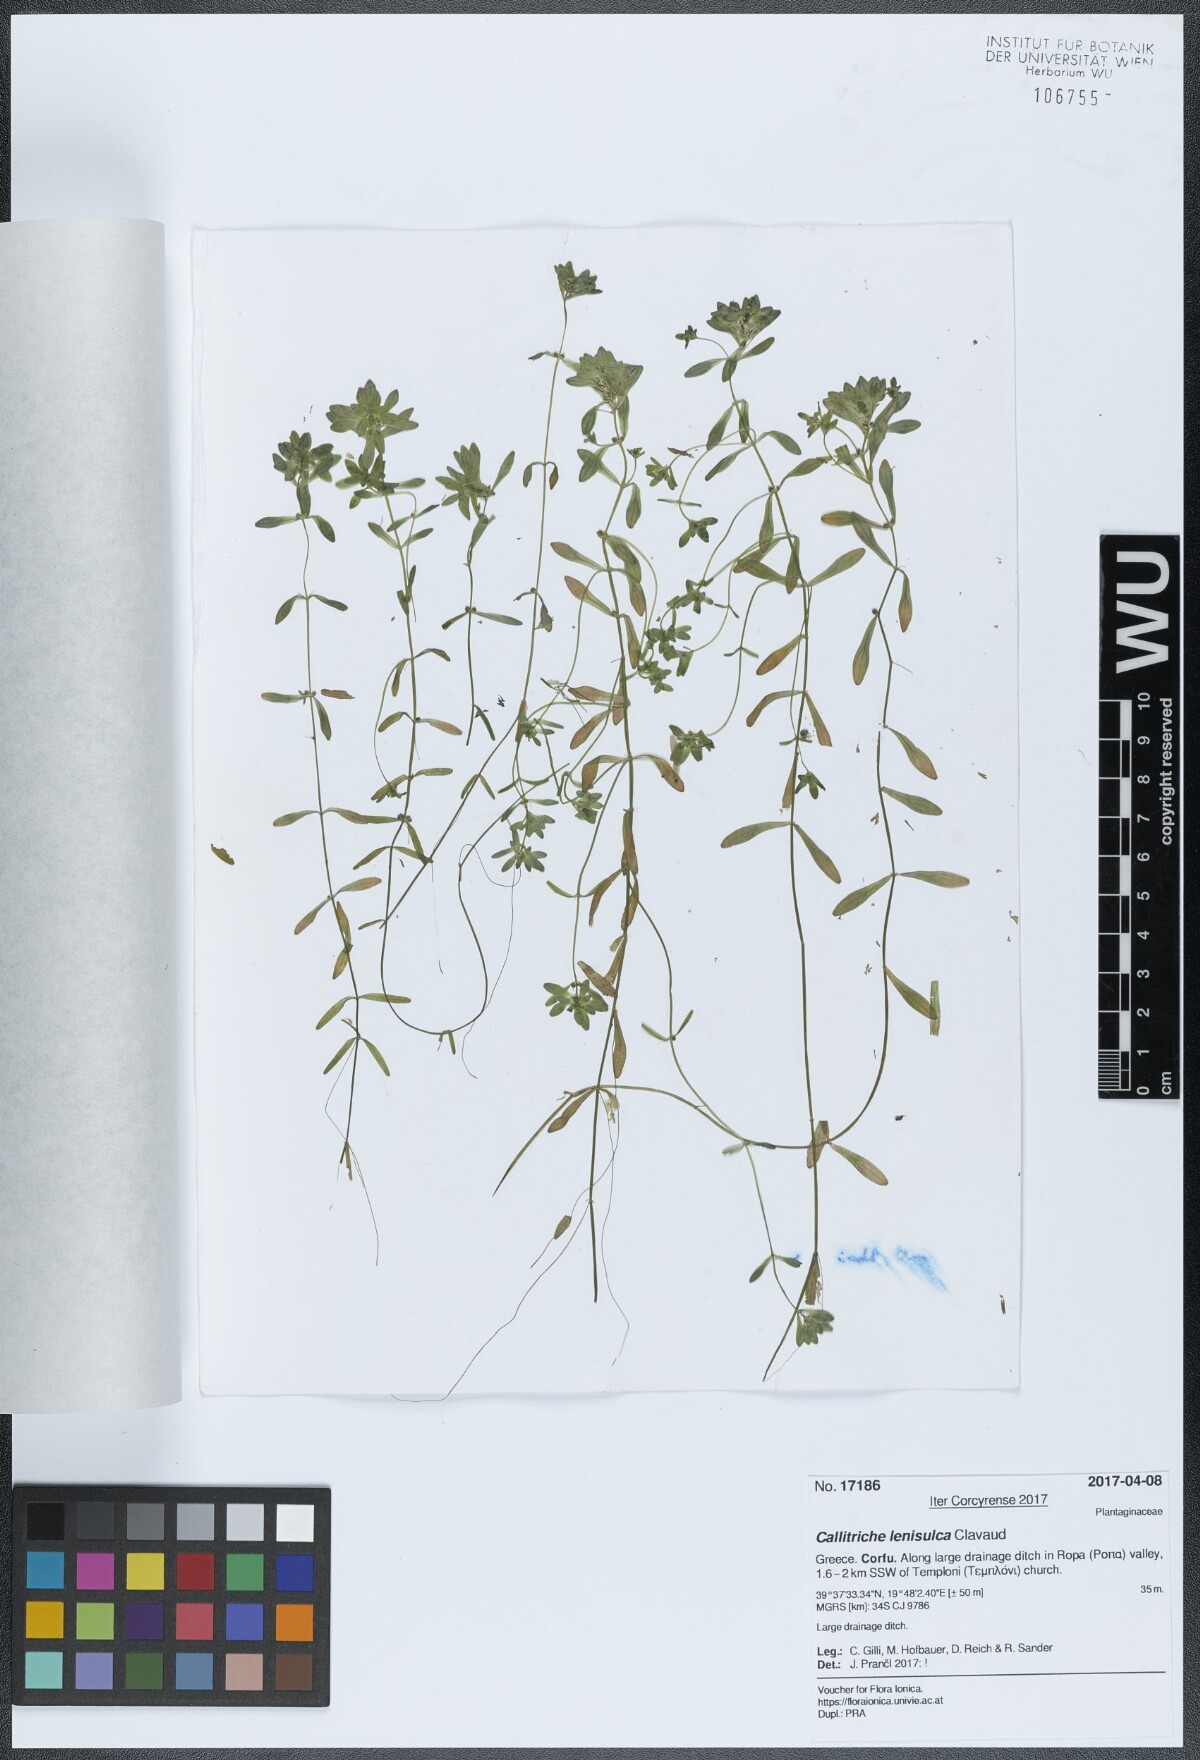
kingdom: Plantae
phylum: Tracheophyta
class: Magnoliopsida
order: Lamiales
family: Plantaginaceae
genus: Callitriche
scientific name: Callitriche lenisulca
